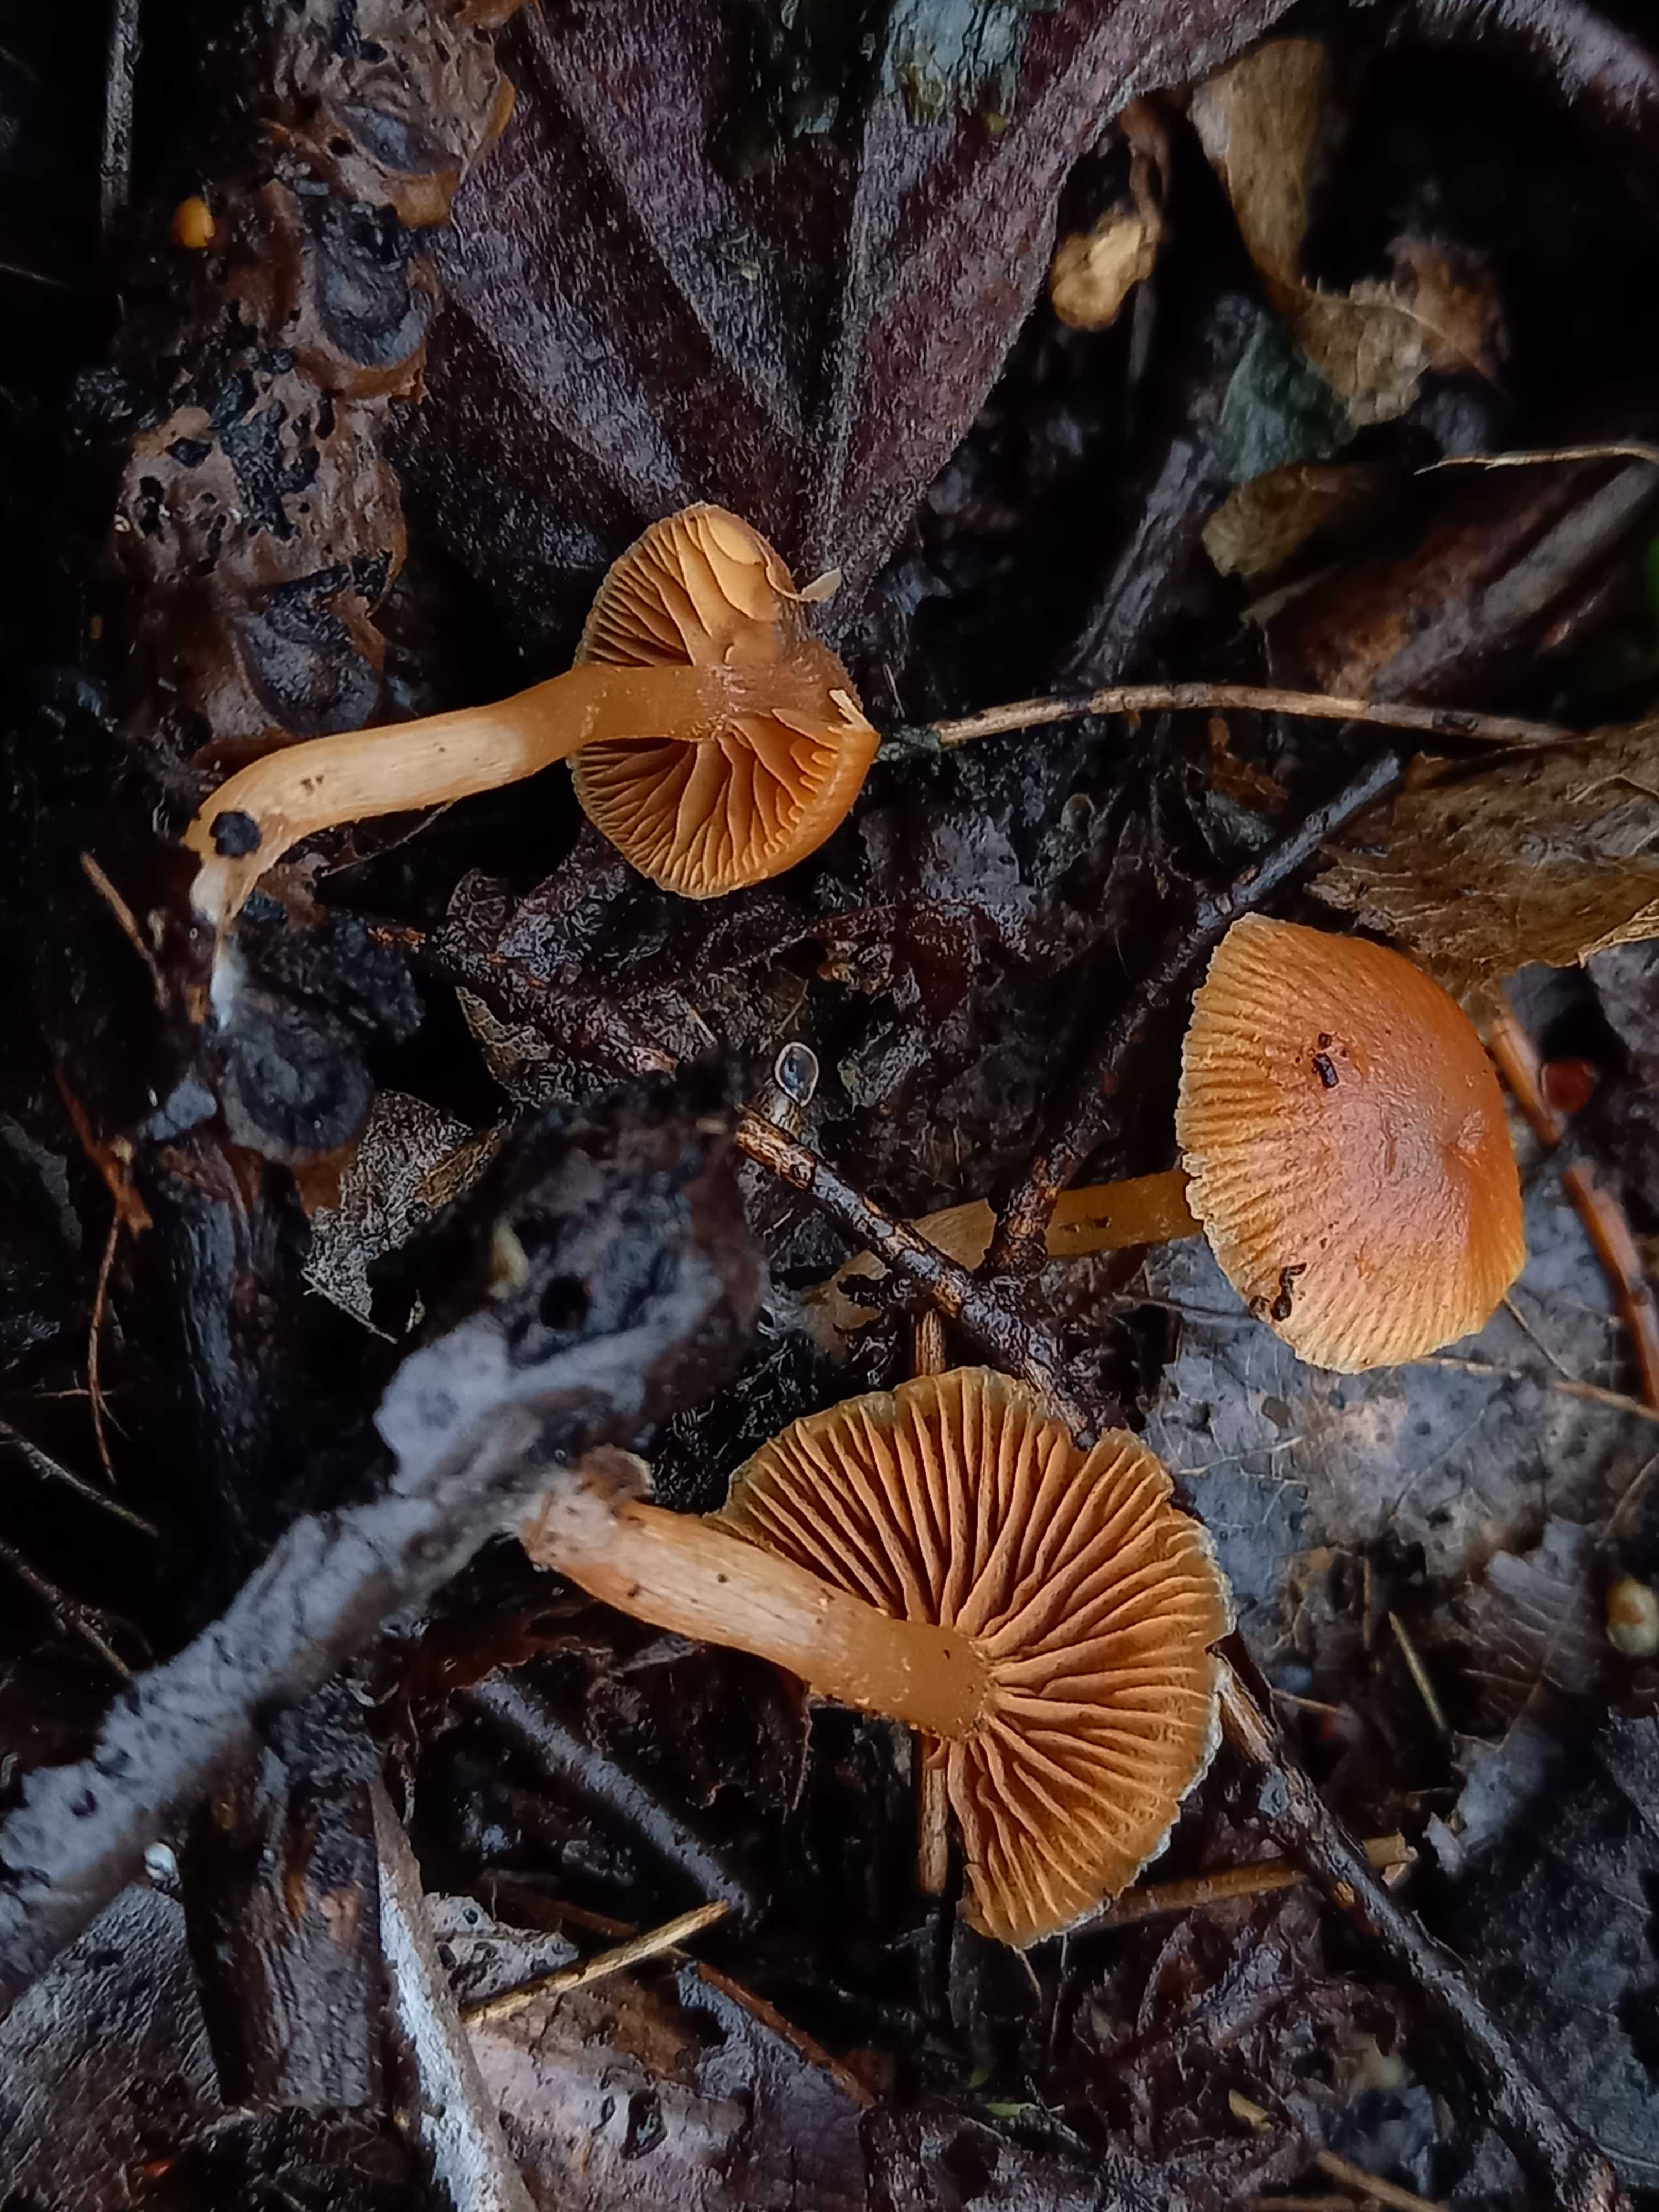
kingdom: Fungi
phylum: Basidiomycota
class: Agaricomycetes
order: Agaricales
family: Tubariaceae
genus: Tubaria
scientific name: Tubaria furfuracea
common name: kliddet fnughat
